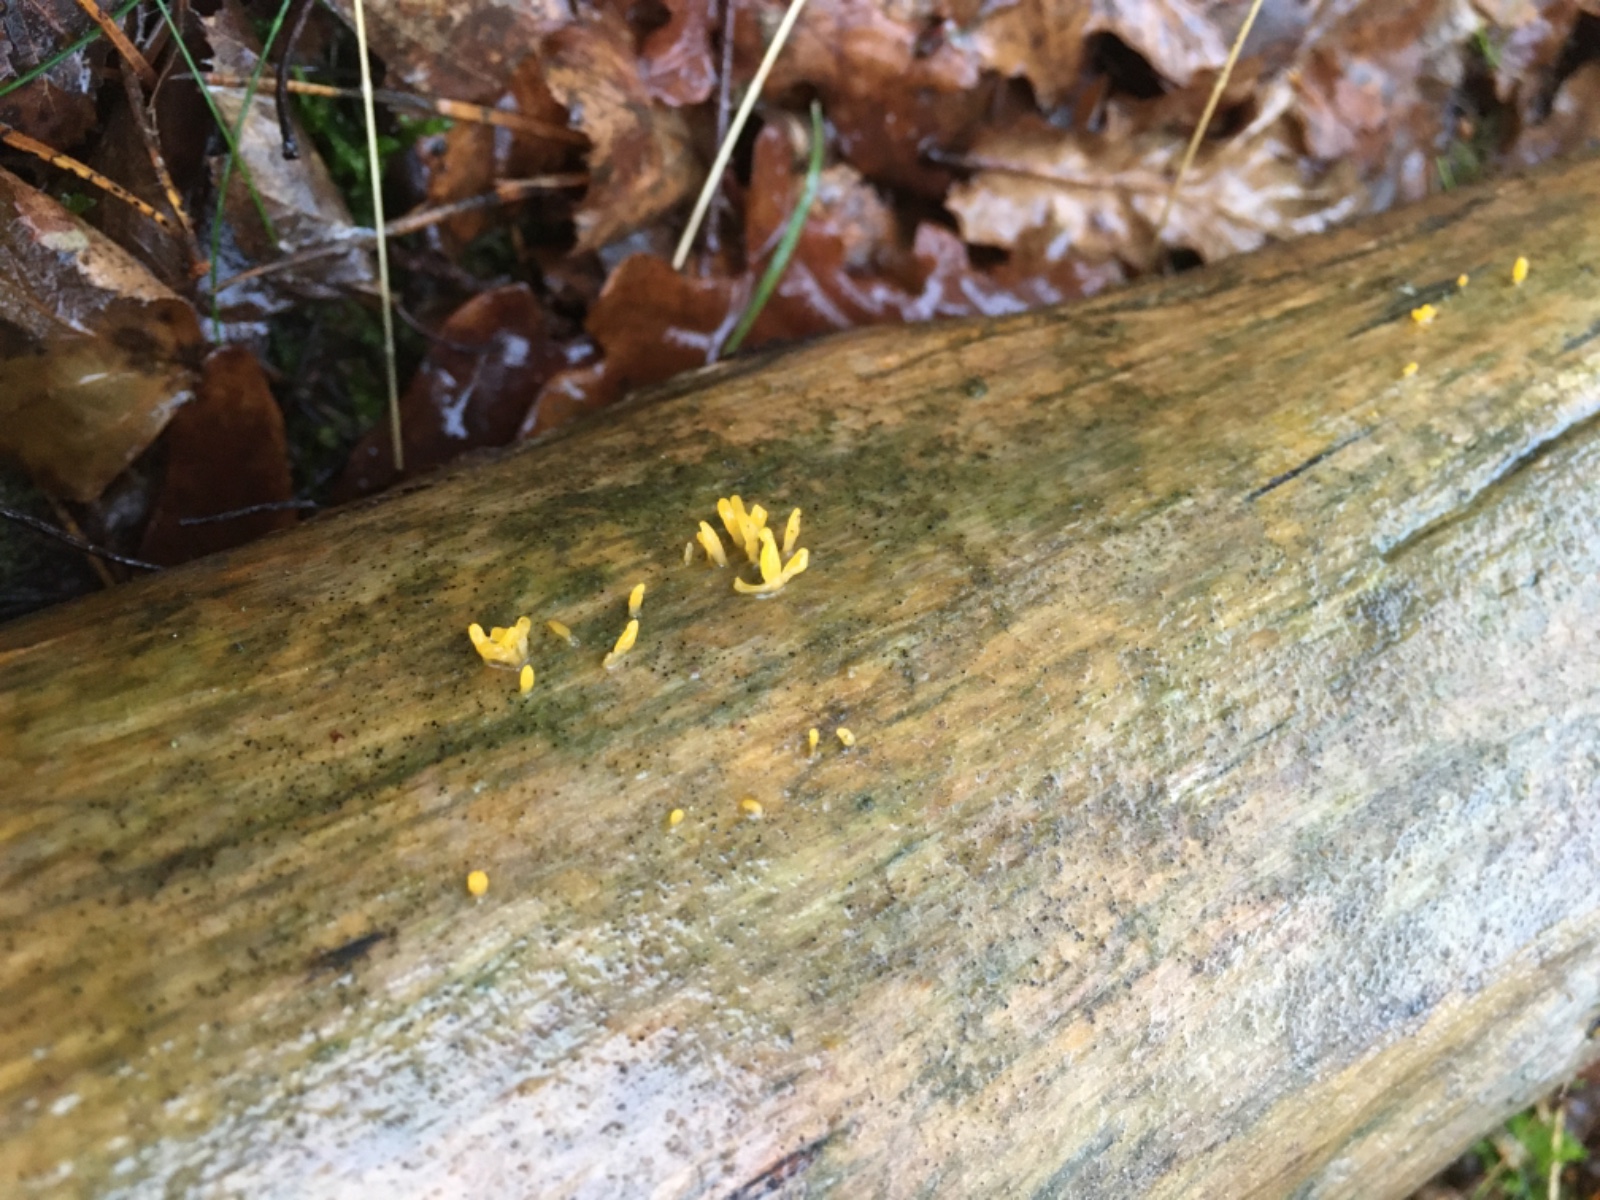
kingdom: Fungi
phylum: Basidiomycota
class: Dacrymycetes
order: Dacrymycetales
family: Dacrymycetaceae
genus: Calocera
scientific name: Calocera furcata
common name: fyrre-guldgaffel
